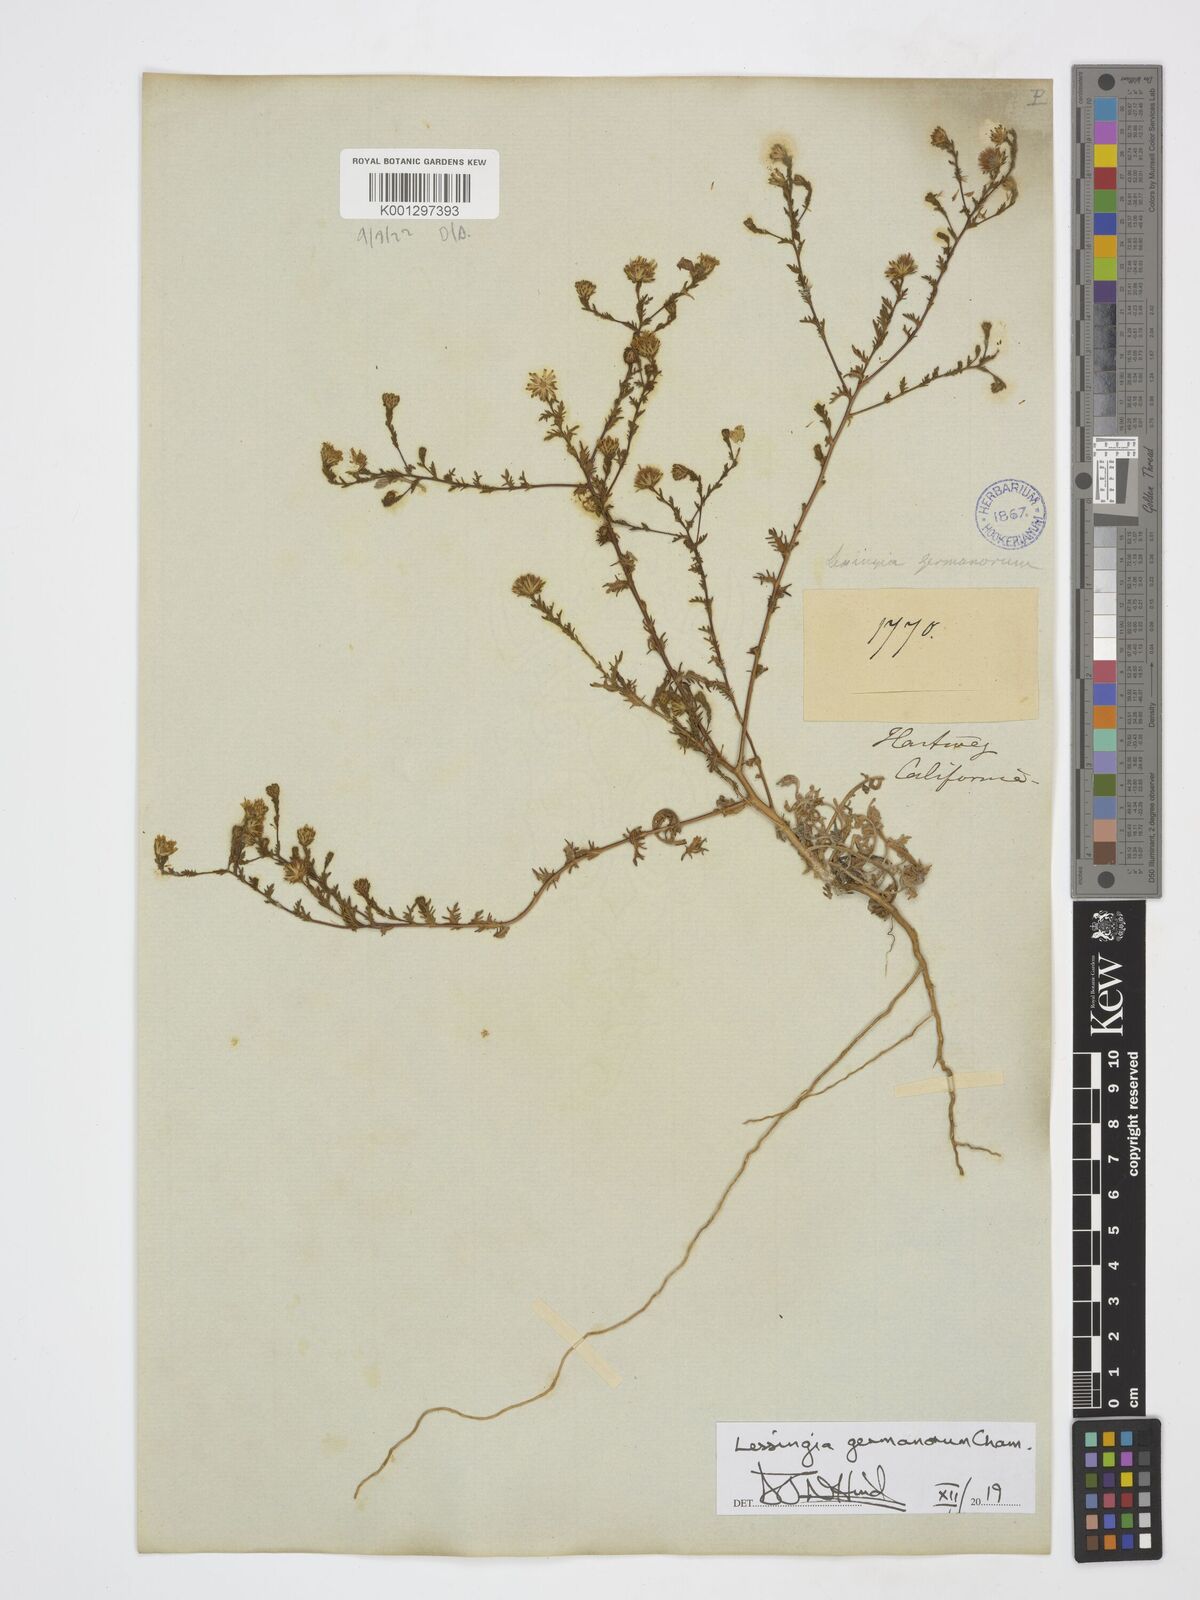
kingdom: Plantae
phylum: Tracheophyta
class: Magnoliopsida
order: Asterales
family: Asteraceae
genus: Lessingia
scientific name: Lessingia germanorum
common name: San francisco lessingia
